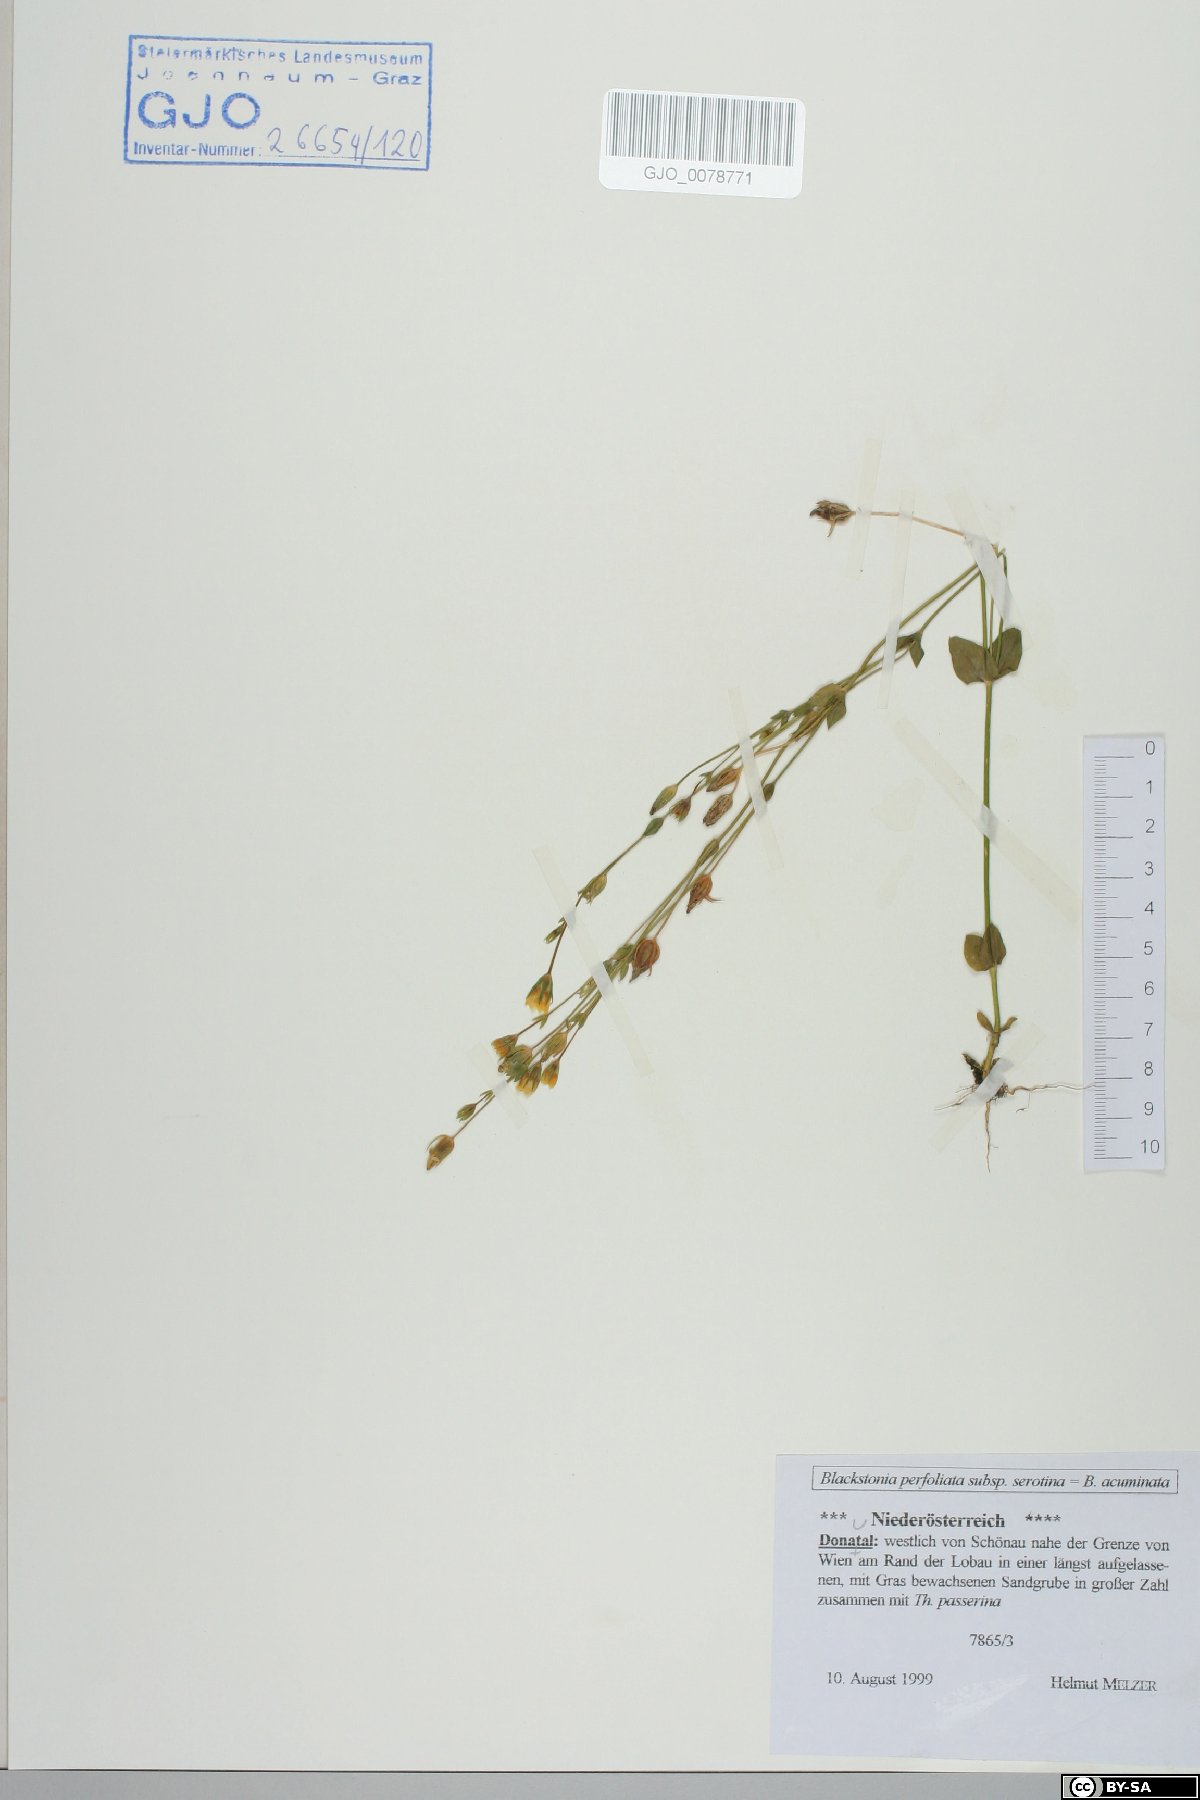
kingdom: Plantae
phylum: Tracheophyta
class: Magnoliopsida
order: Gentianales
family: Gentianaceae
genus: Blackstonia
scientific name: Blackstonia acuminata
